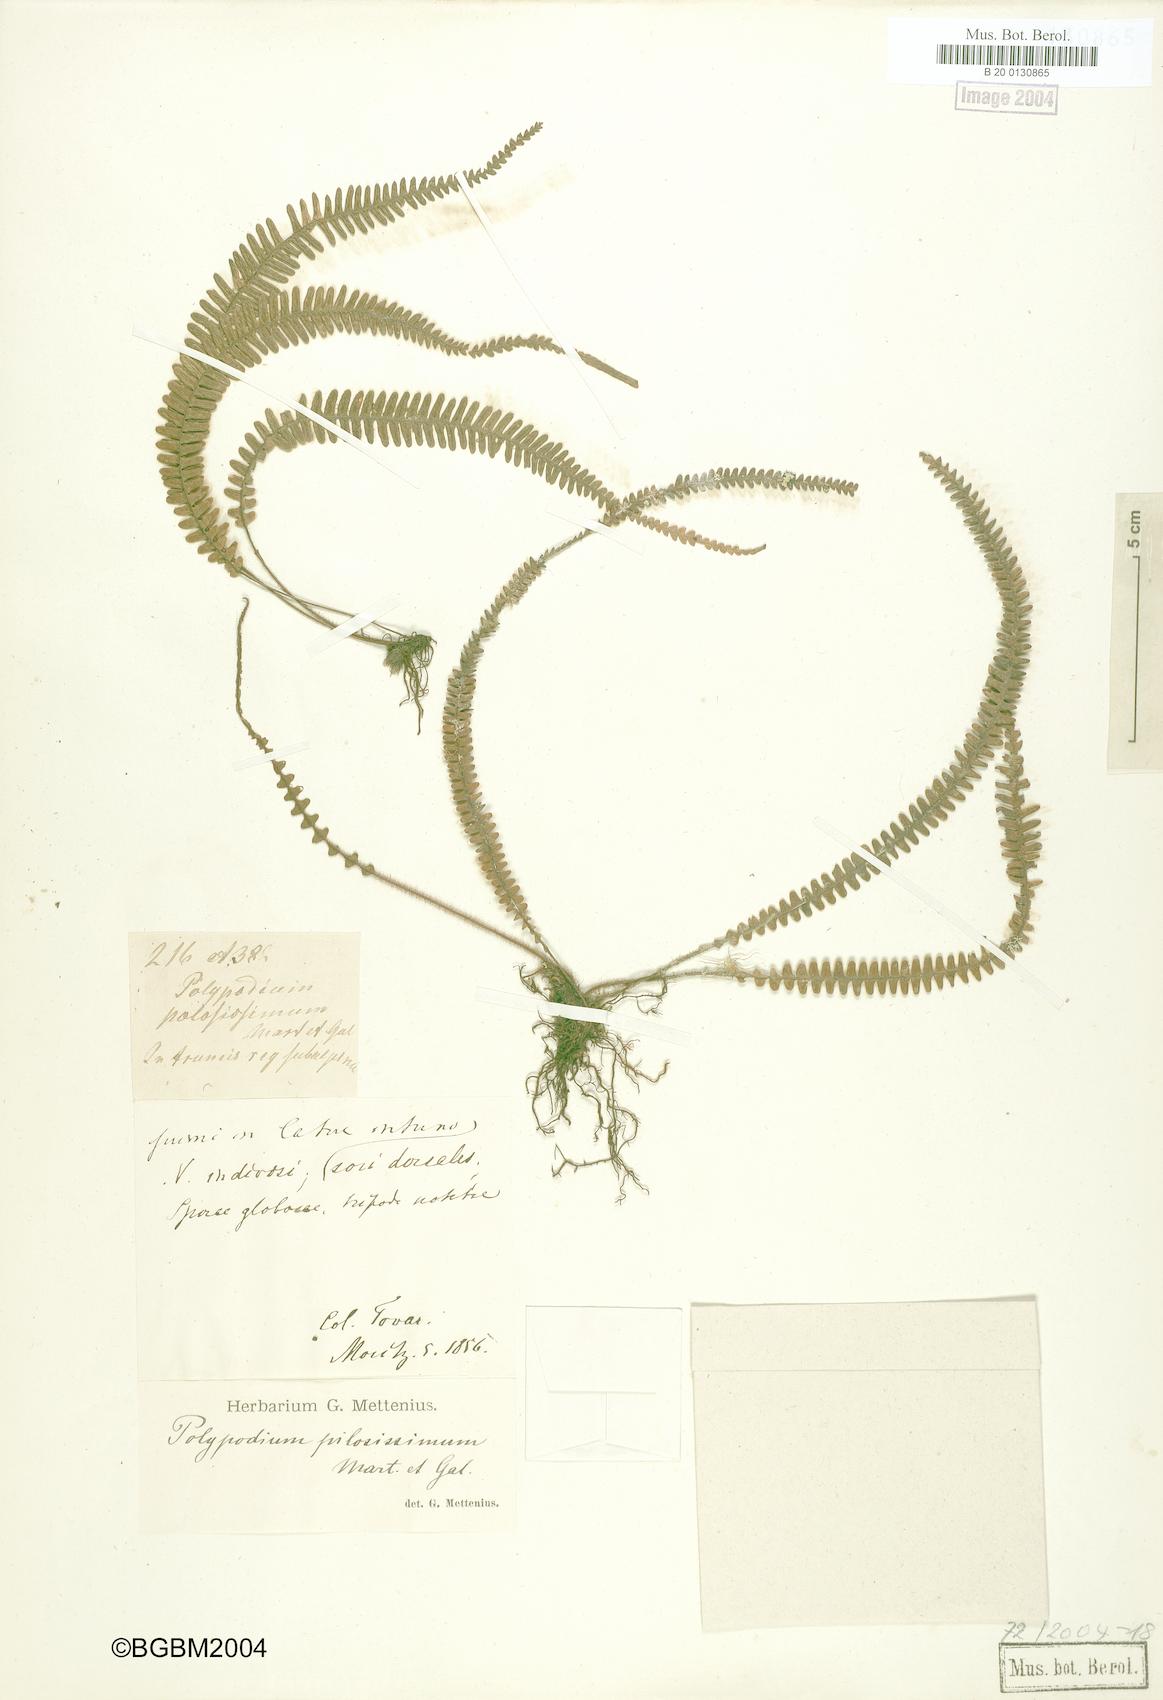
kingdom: Plantae
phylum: Tracheophyta
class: Polypodiopsida
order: Polypodiales
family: Polypodiaceae
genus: Melpomene
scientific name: Melpomene pilosissima
